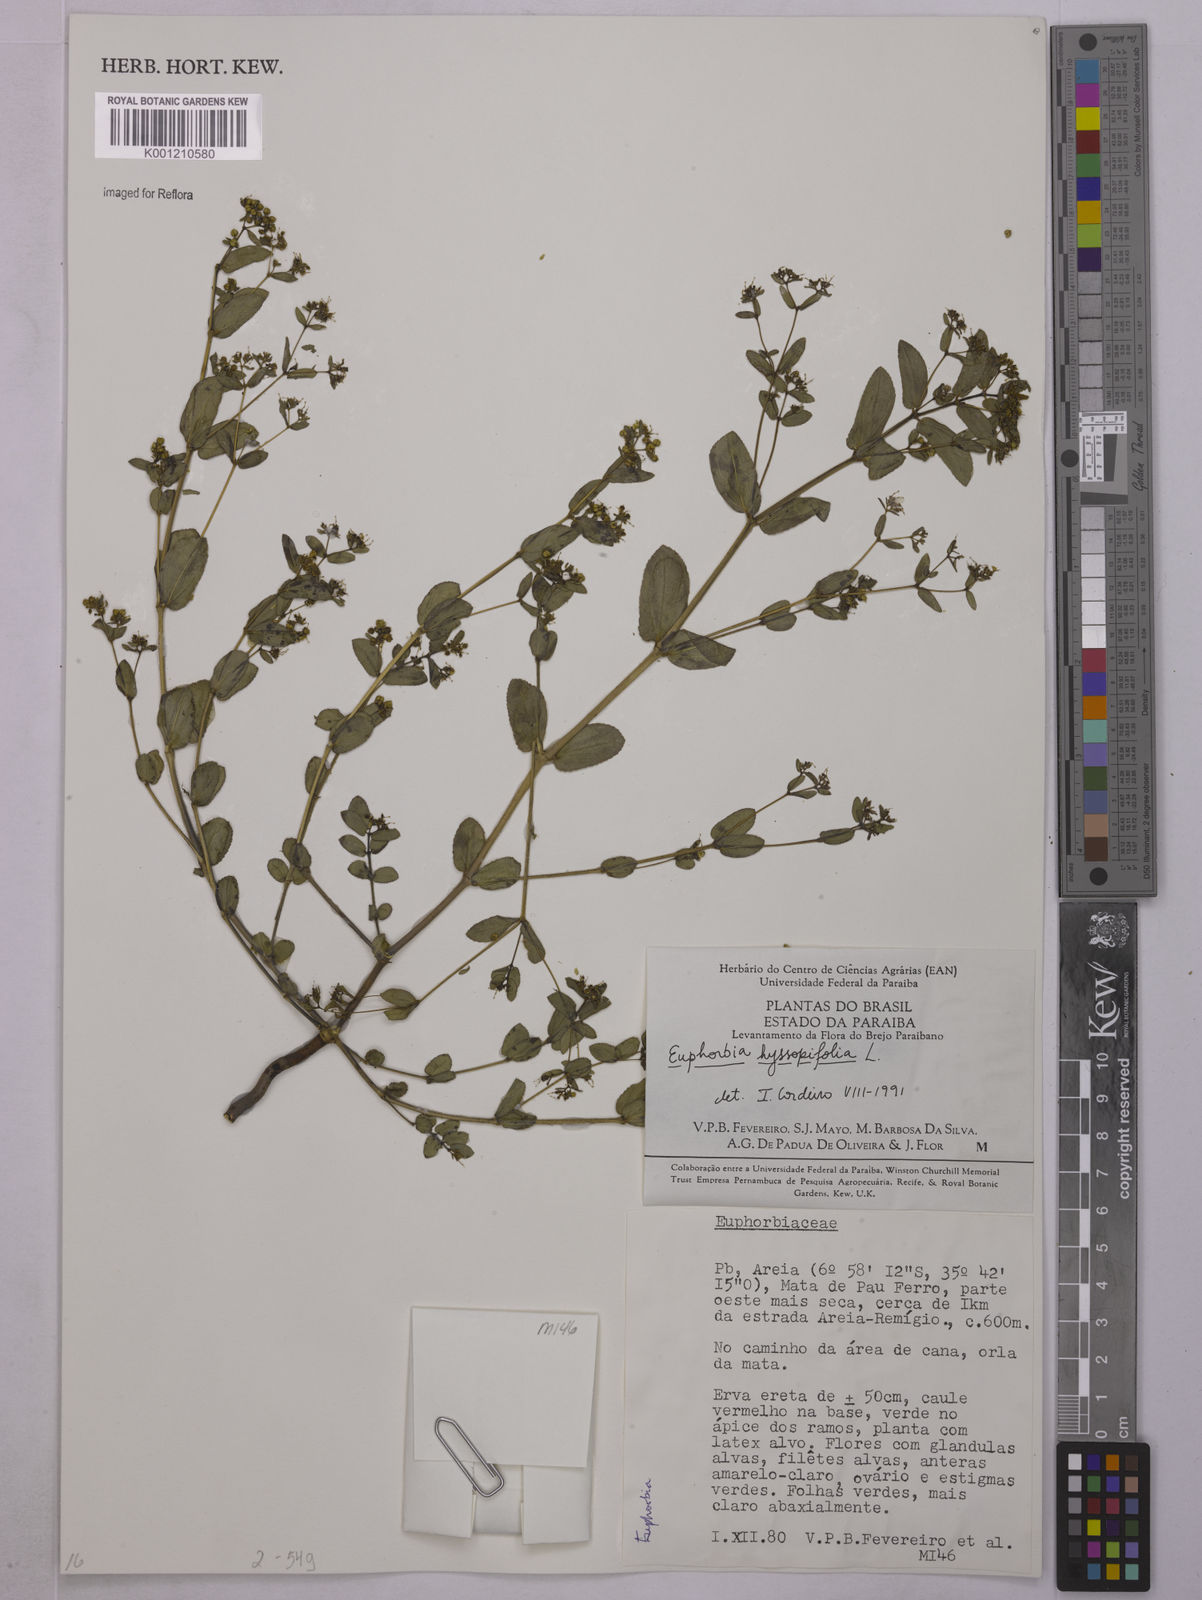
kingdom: Plantae
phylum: Tracheophyta
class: Magnoliopsida
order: Malpighiales
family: Euphorbiaceae
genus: Euphorbia
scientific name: Euphorbia hyssopifolia
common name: Hyssopleaf sandmat
